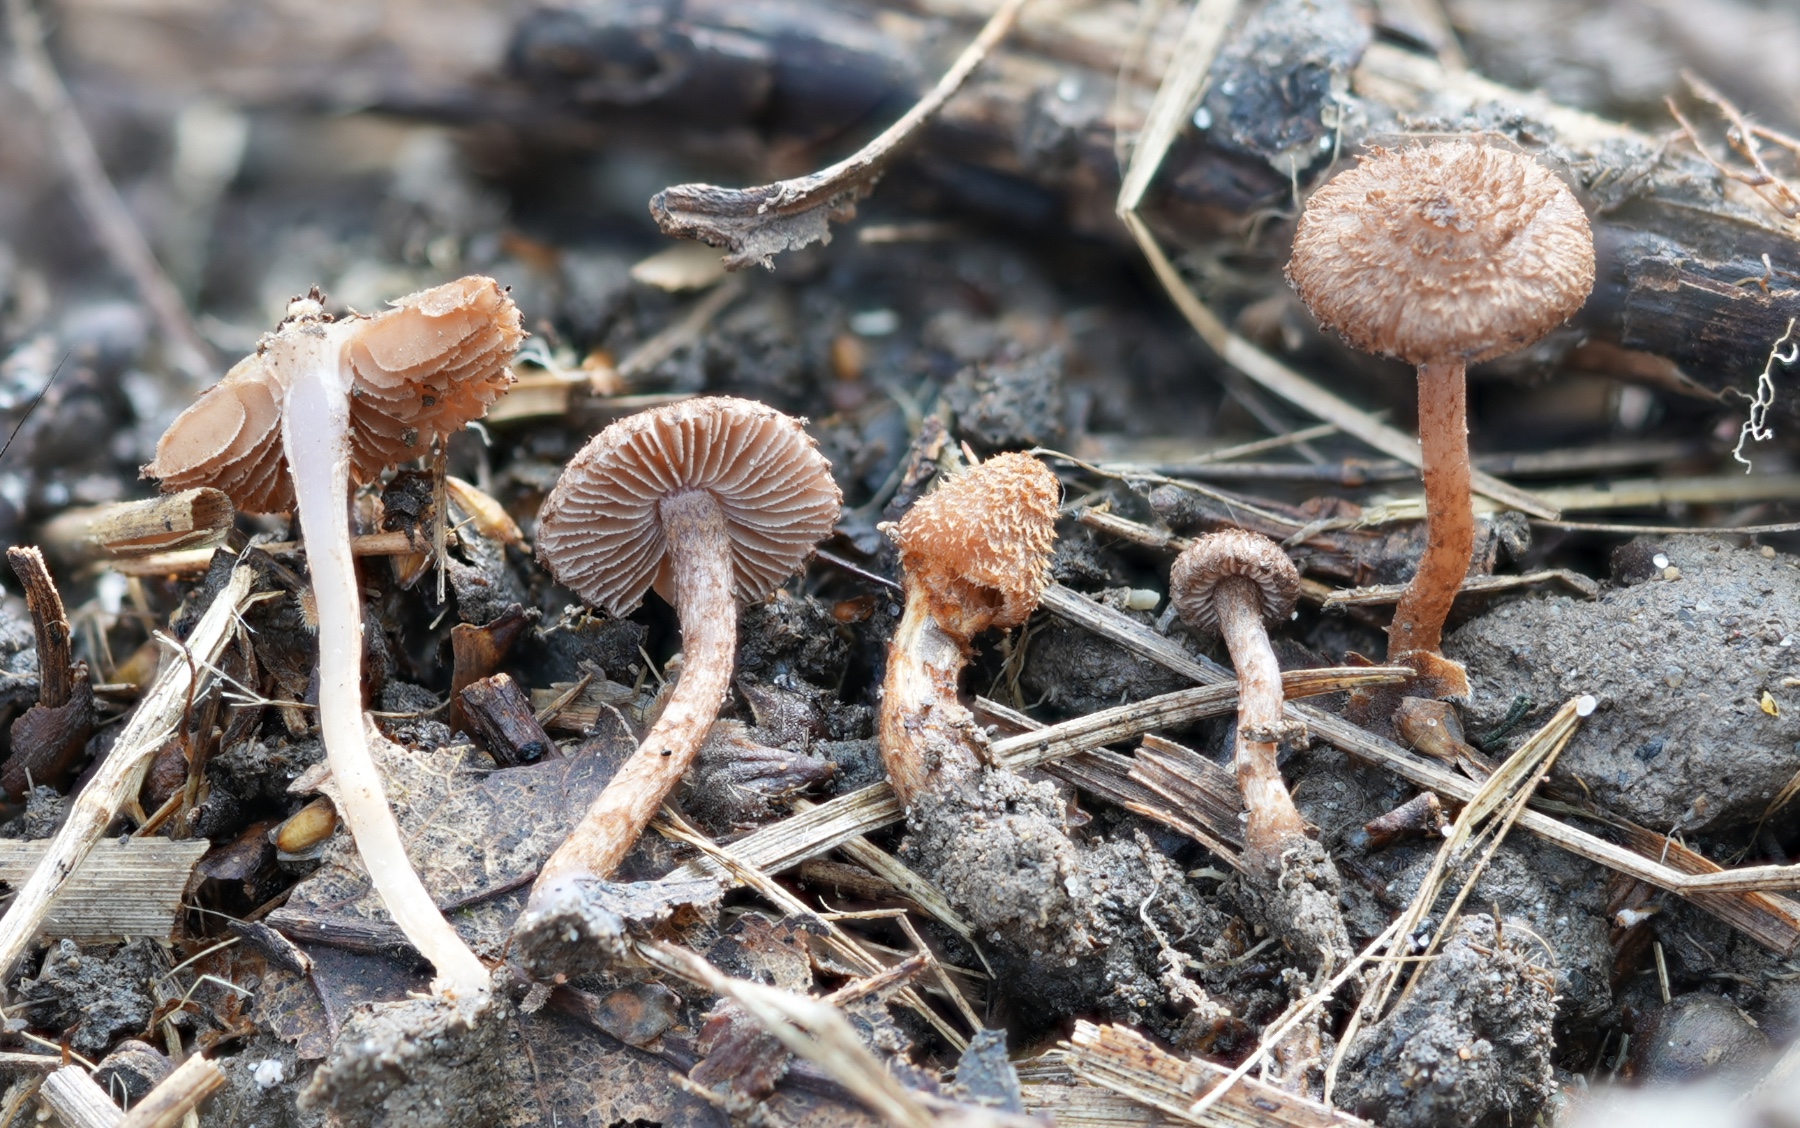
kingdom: Fungi
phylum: Basidiomycota
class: Agaricomycetes
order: Agaricales
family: Inocybaceae
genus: Inocybe
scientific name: Inocybe cincinnata
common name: lillabladet trævlhat
